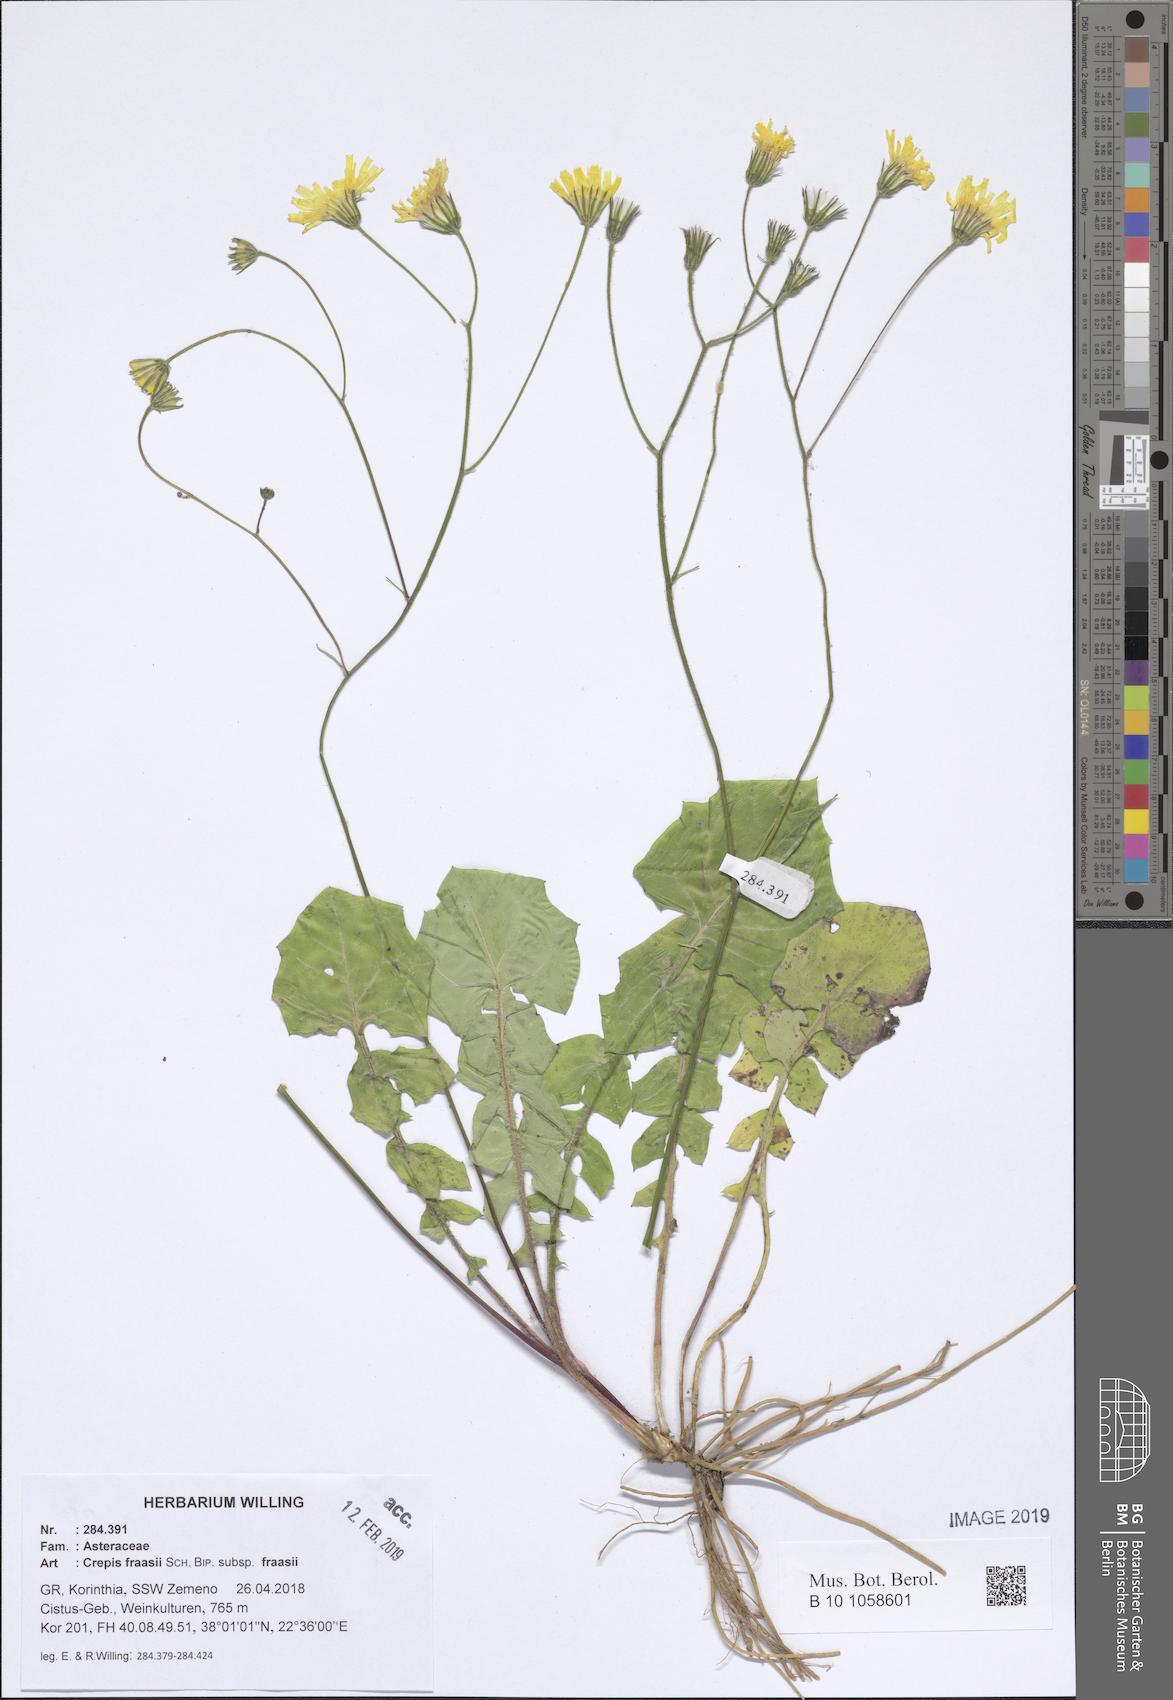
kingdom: Plantae
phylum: Tracheophyta
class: Magnoliopsida
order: Asterales
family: Asteraceae
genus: Crepis
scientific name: Crepis fraasii
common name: Hawk's-beard
